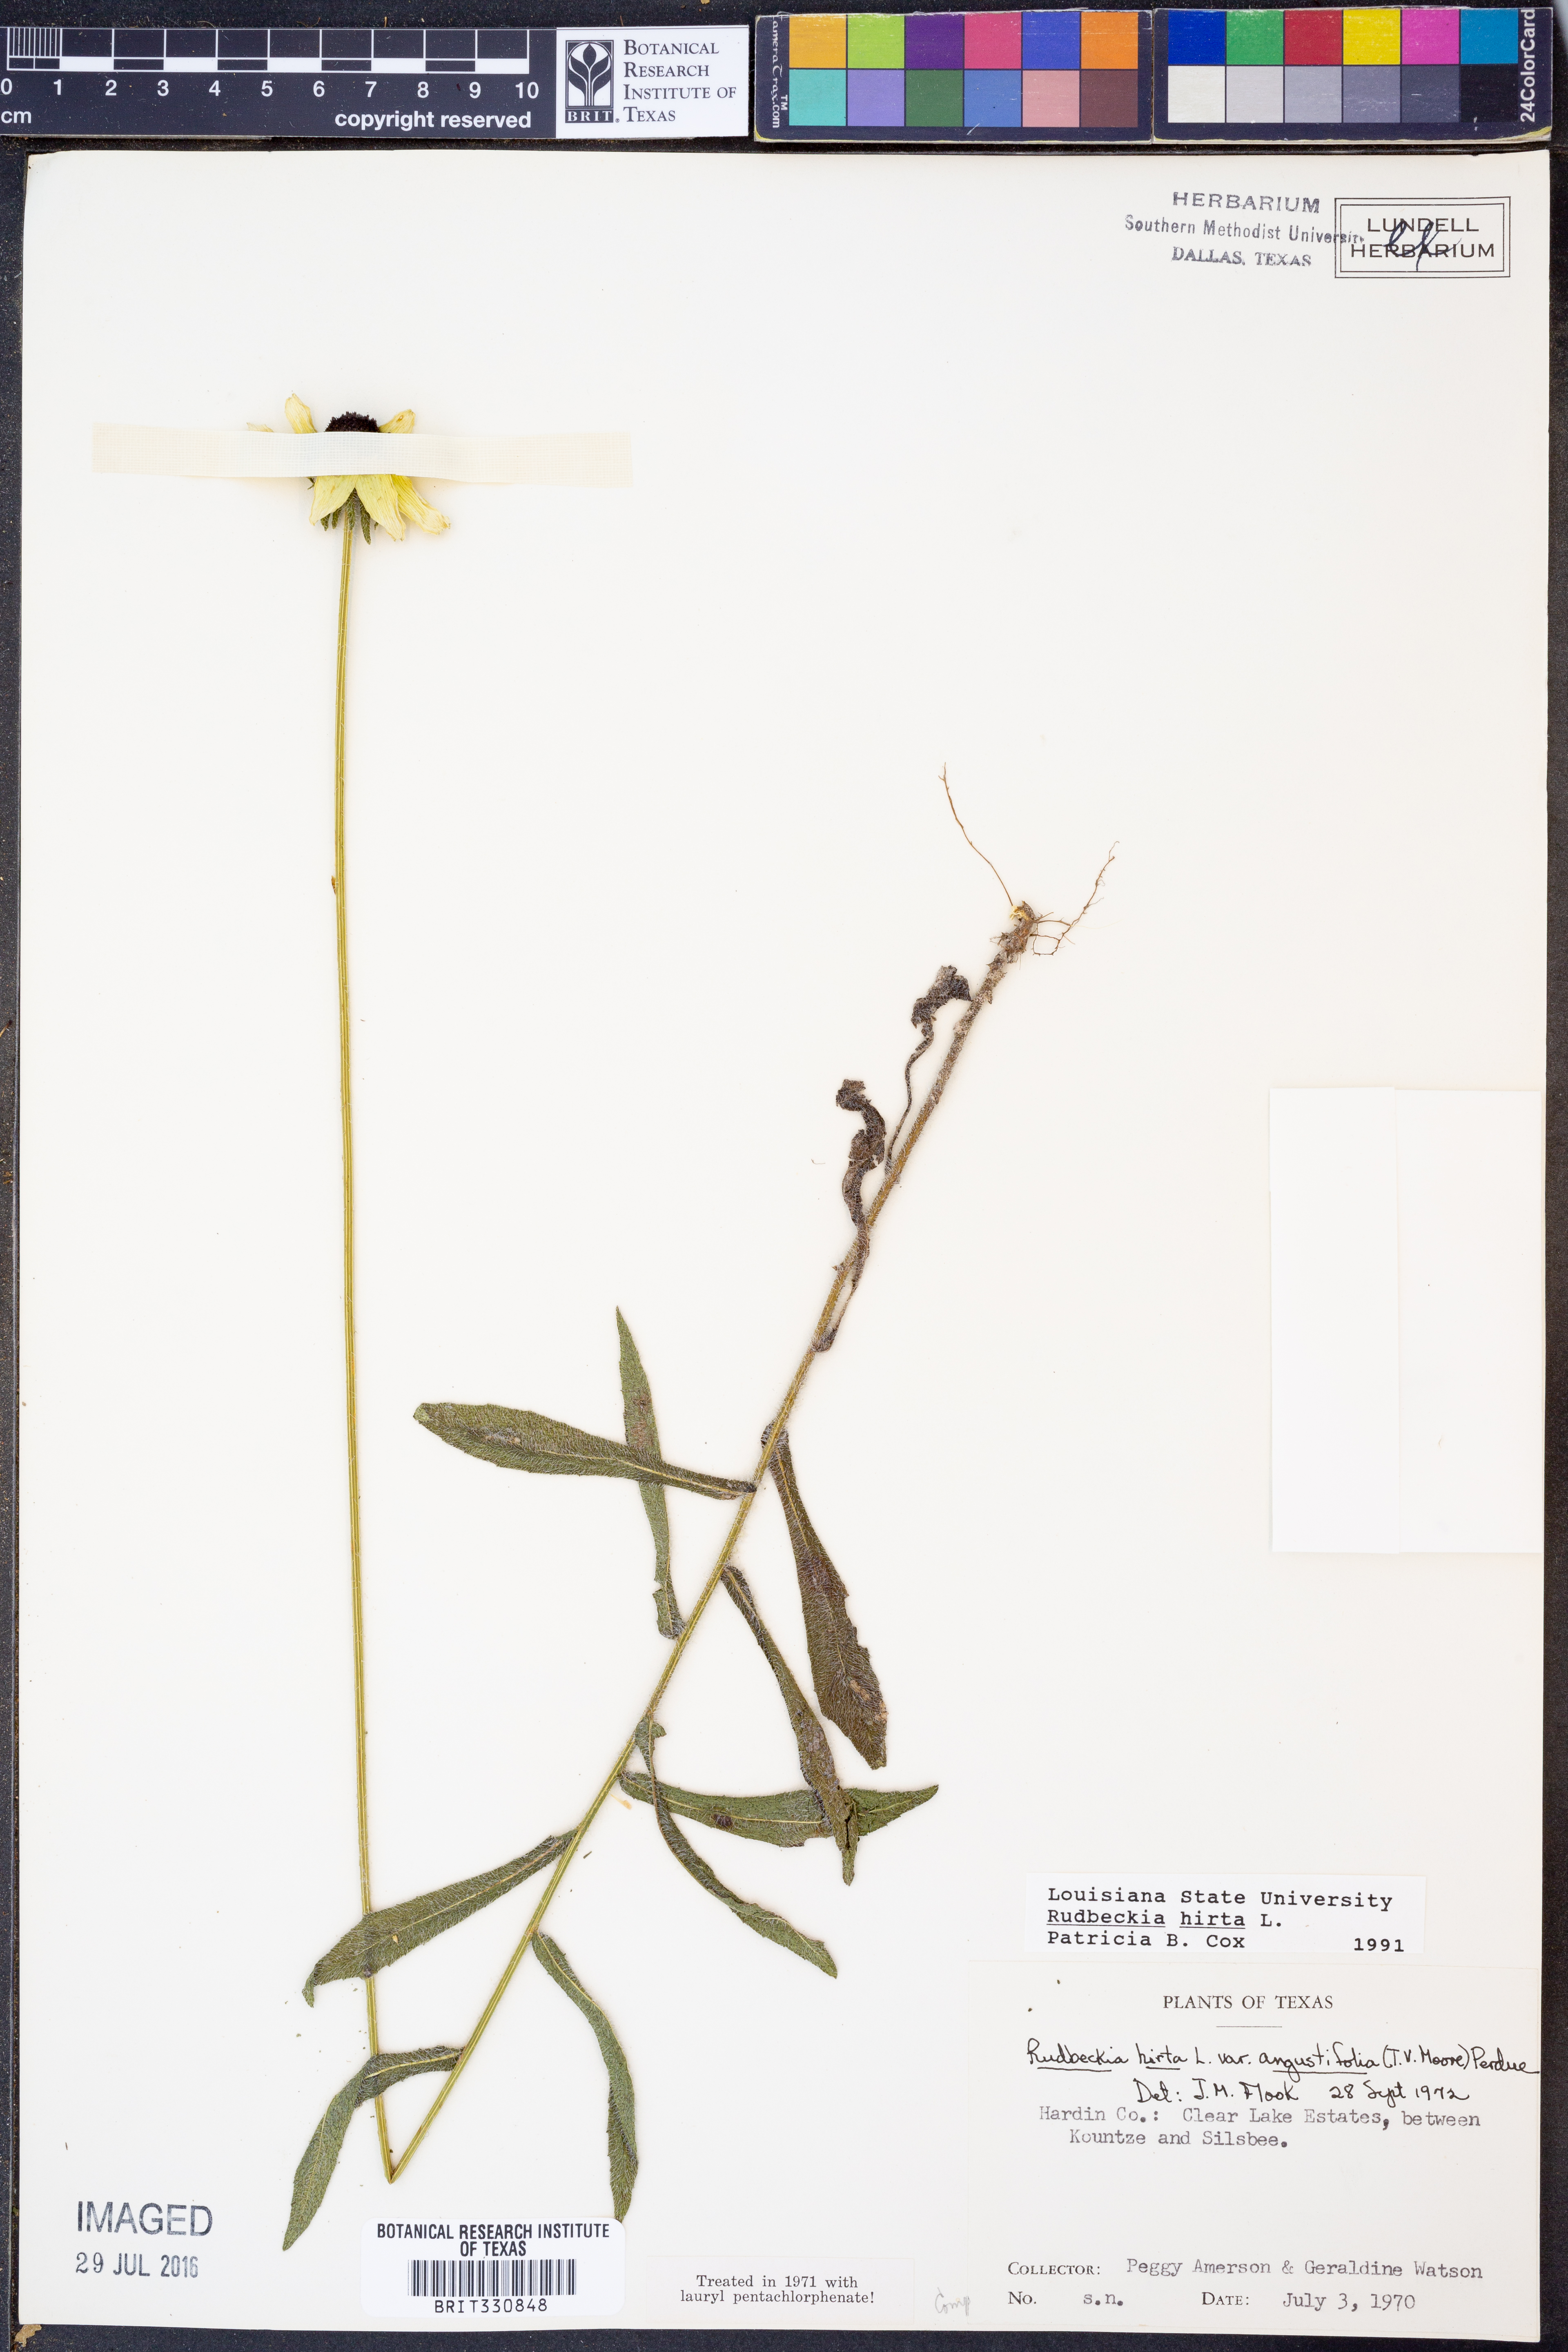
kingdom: Plantae
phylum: Tracheophyta
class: Magnoliopsida
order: Asterales
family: Asteraceae
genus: Rudbeckia
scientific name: Rudbeckia hirta
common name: Black-eyed-susan
